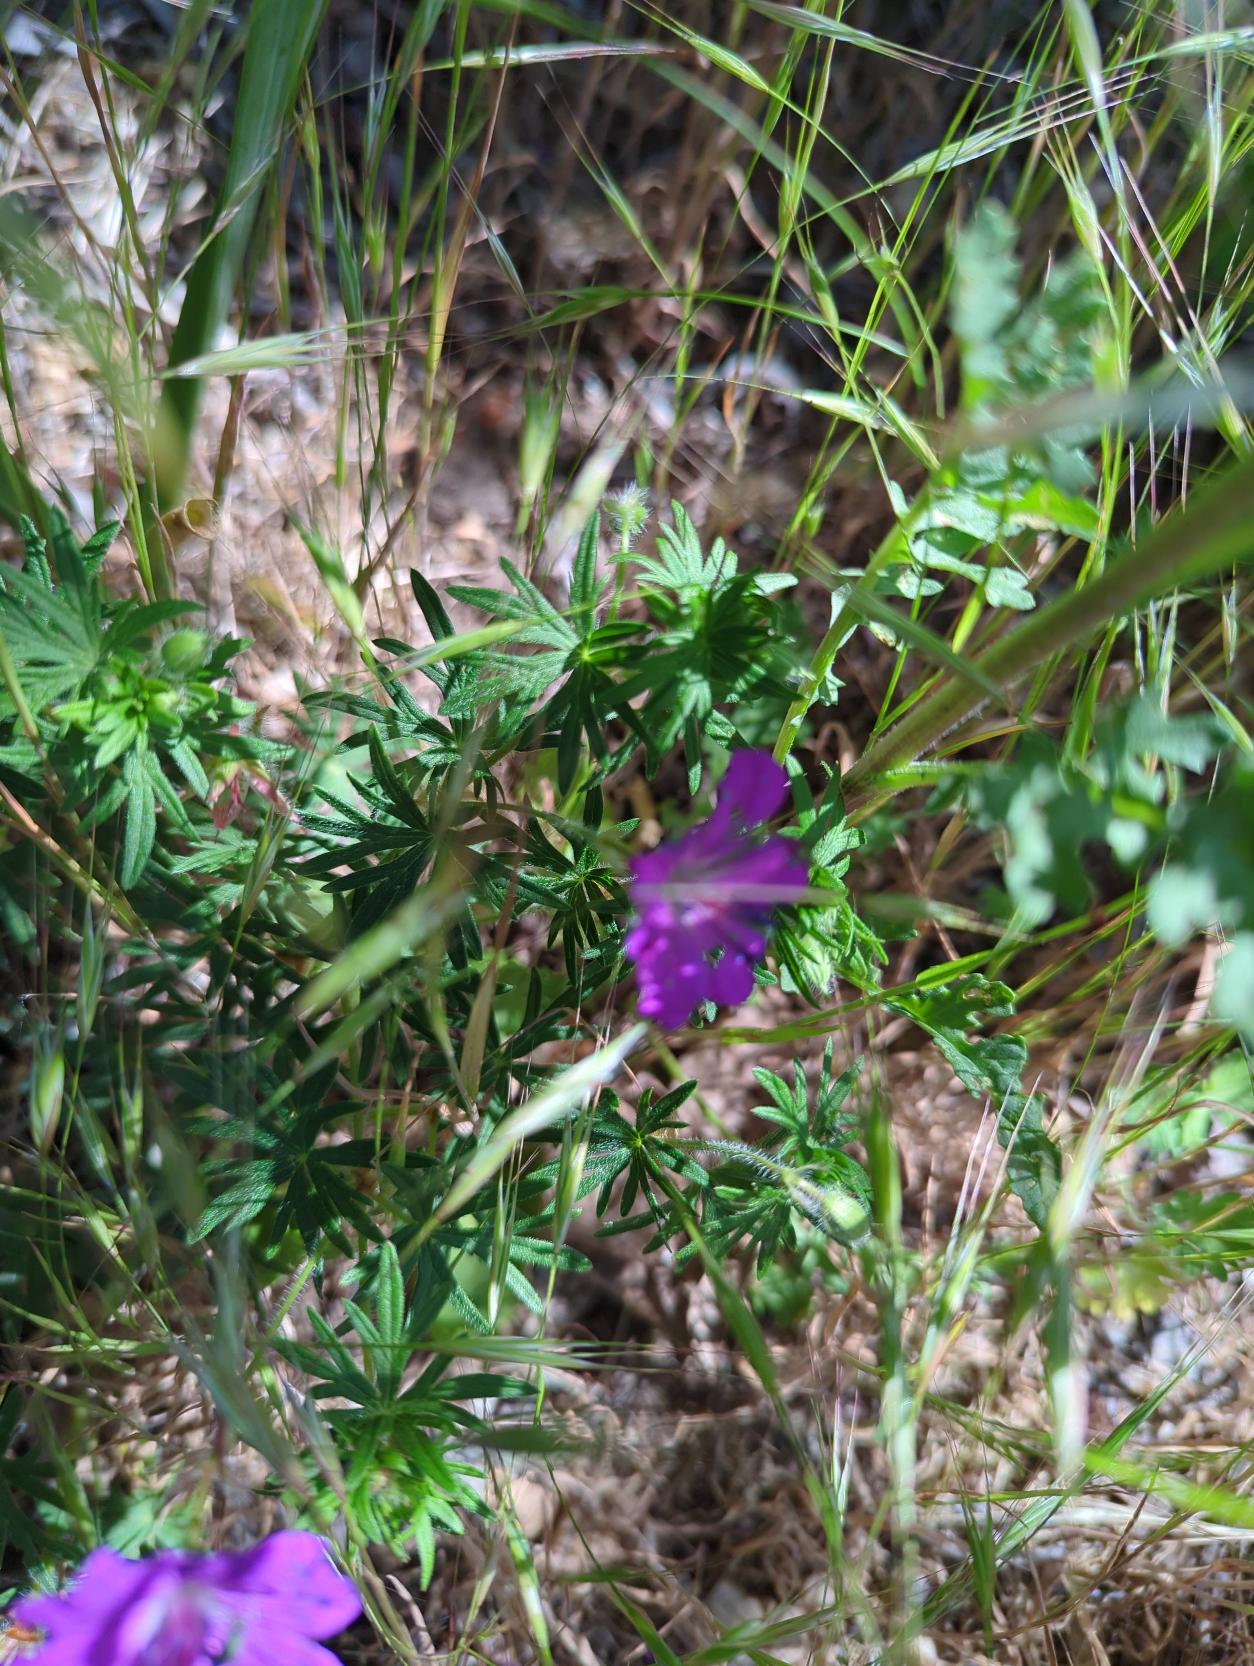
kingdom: Plantae
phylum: Tracheophyta
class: Magnoliopsida
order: Geraniales
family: Geraniaceae
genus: Geranium
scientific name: Geranium sanguineum
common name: Blodrød storkenæb
